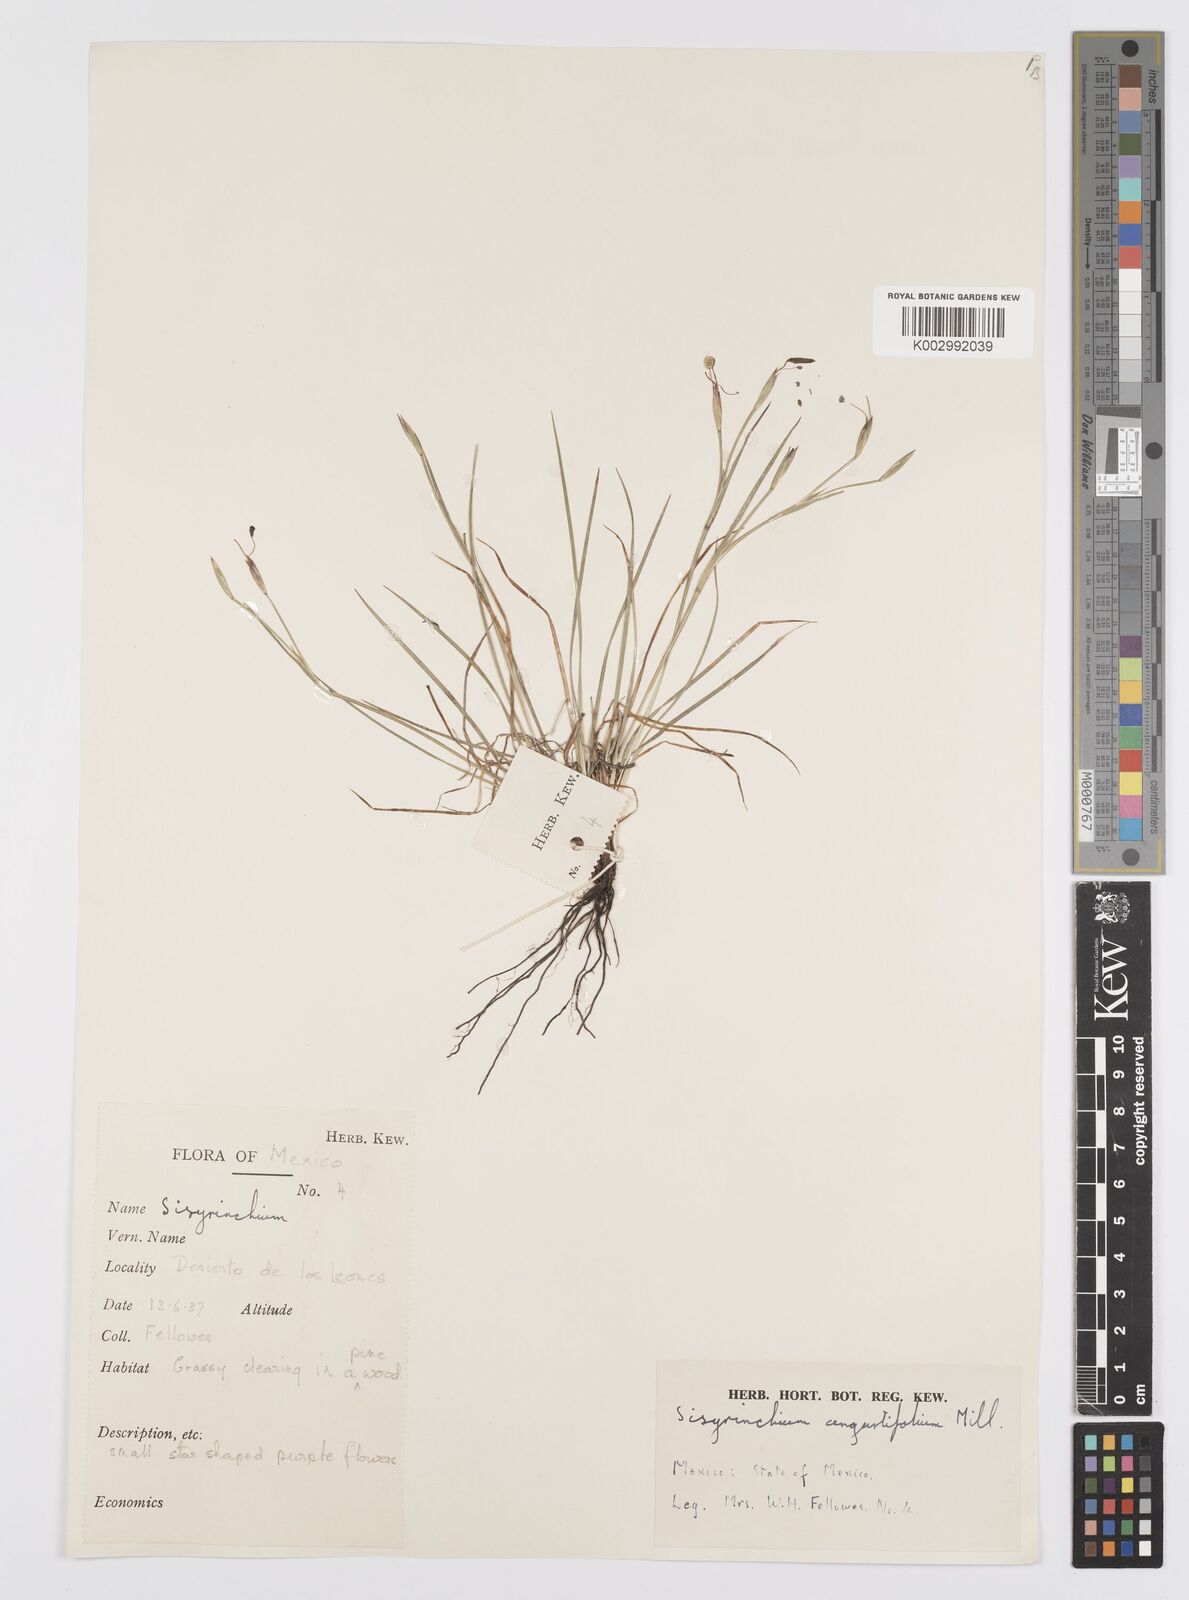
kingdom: Plantae
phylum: Tracheophyta
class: Liliopsida
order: Asparagales
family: Iridaceae
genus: Sisyrinchium
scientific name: Sisyrinchium angustifolium
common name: Narrow-leaf blue-eyed-grass
